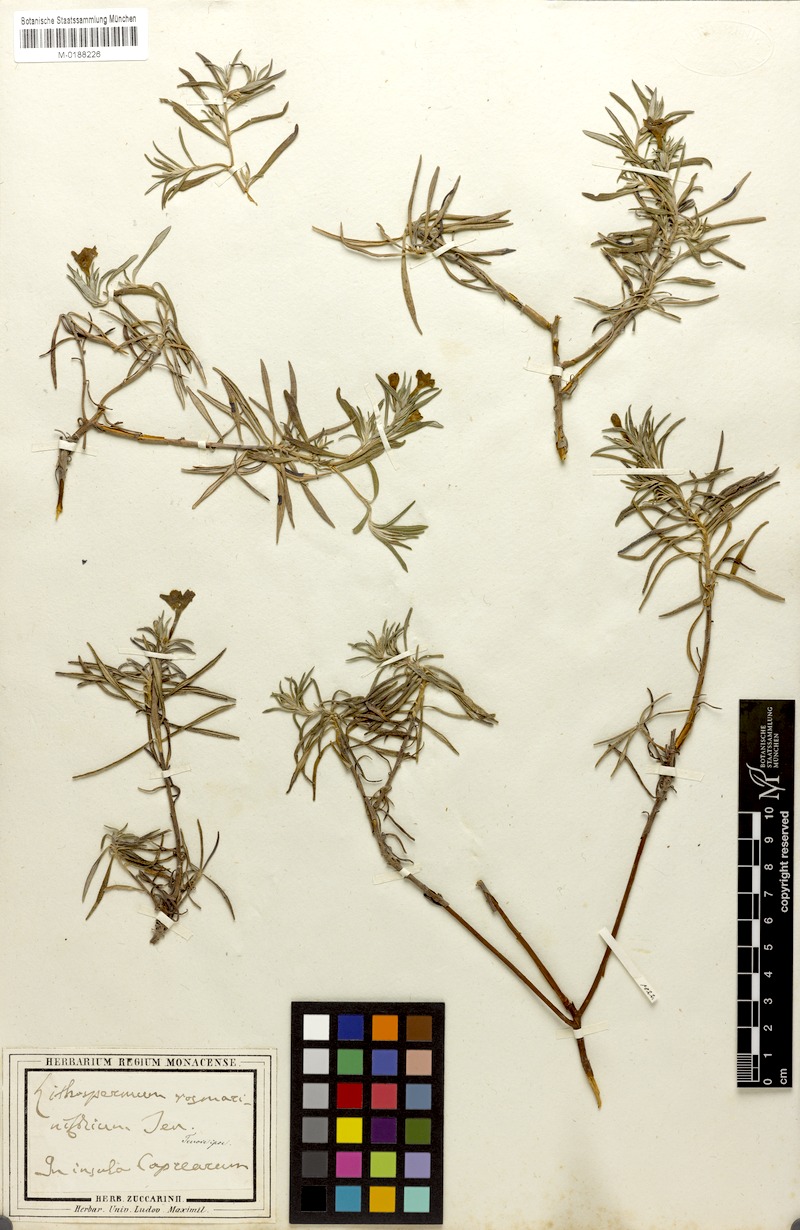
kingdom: Plantae
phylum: Tracheophyta
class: Magnoliopsida
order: Boraginales
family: Boraginaceae
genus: Glandora
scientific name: Glandora rosmarinifolia
